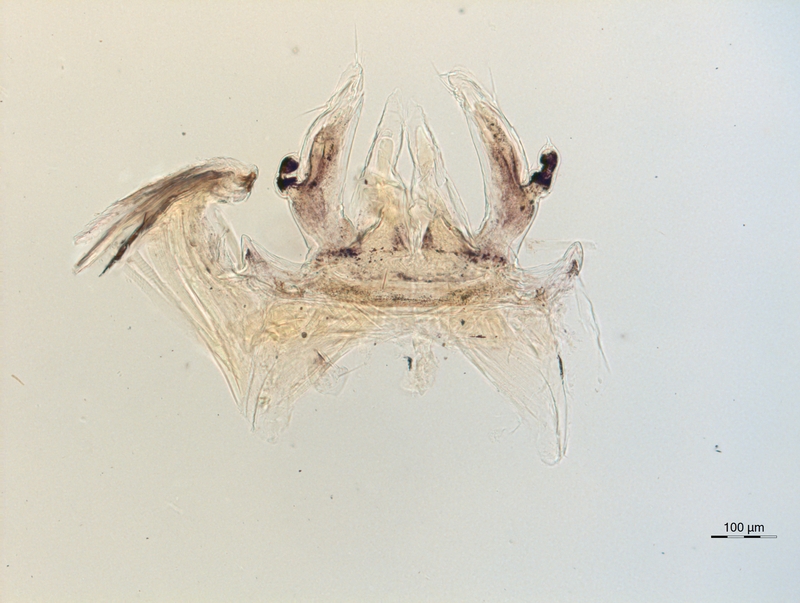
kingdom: Animalia
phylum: Arthropoda
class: Diplopoda
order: Chordeumatida
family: Anthroleucosomatidae
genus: Anamastigona
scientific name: Anamastigona hispidula
